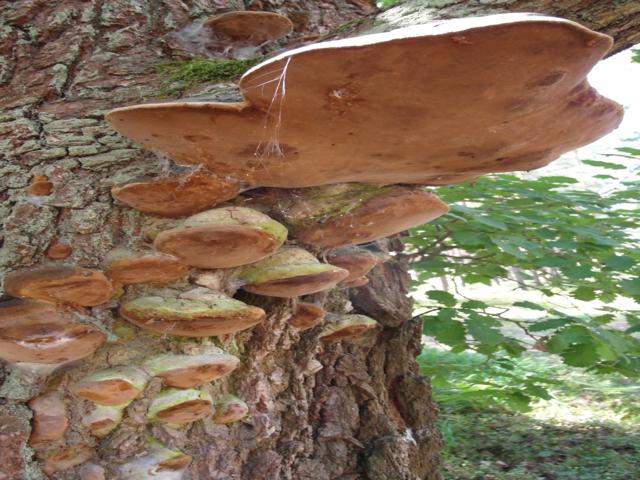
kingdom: Fungi
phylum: Basidiomycota
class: Agaricomycetes
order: Polyporales
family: Polyporaceae
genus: Fomes
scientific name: Fomes fomentarius
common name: tøndersvamp
